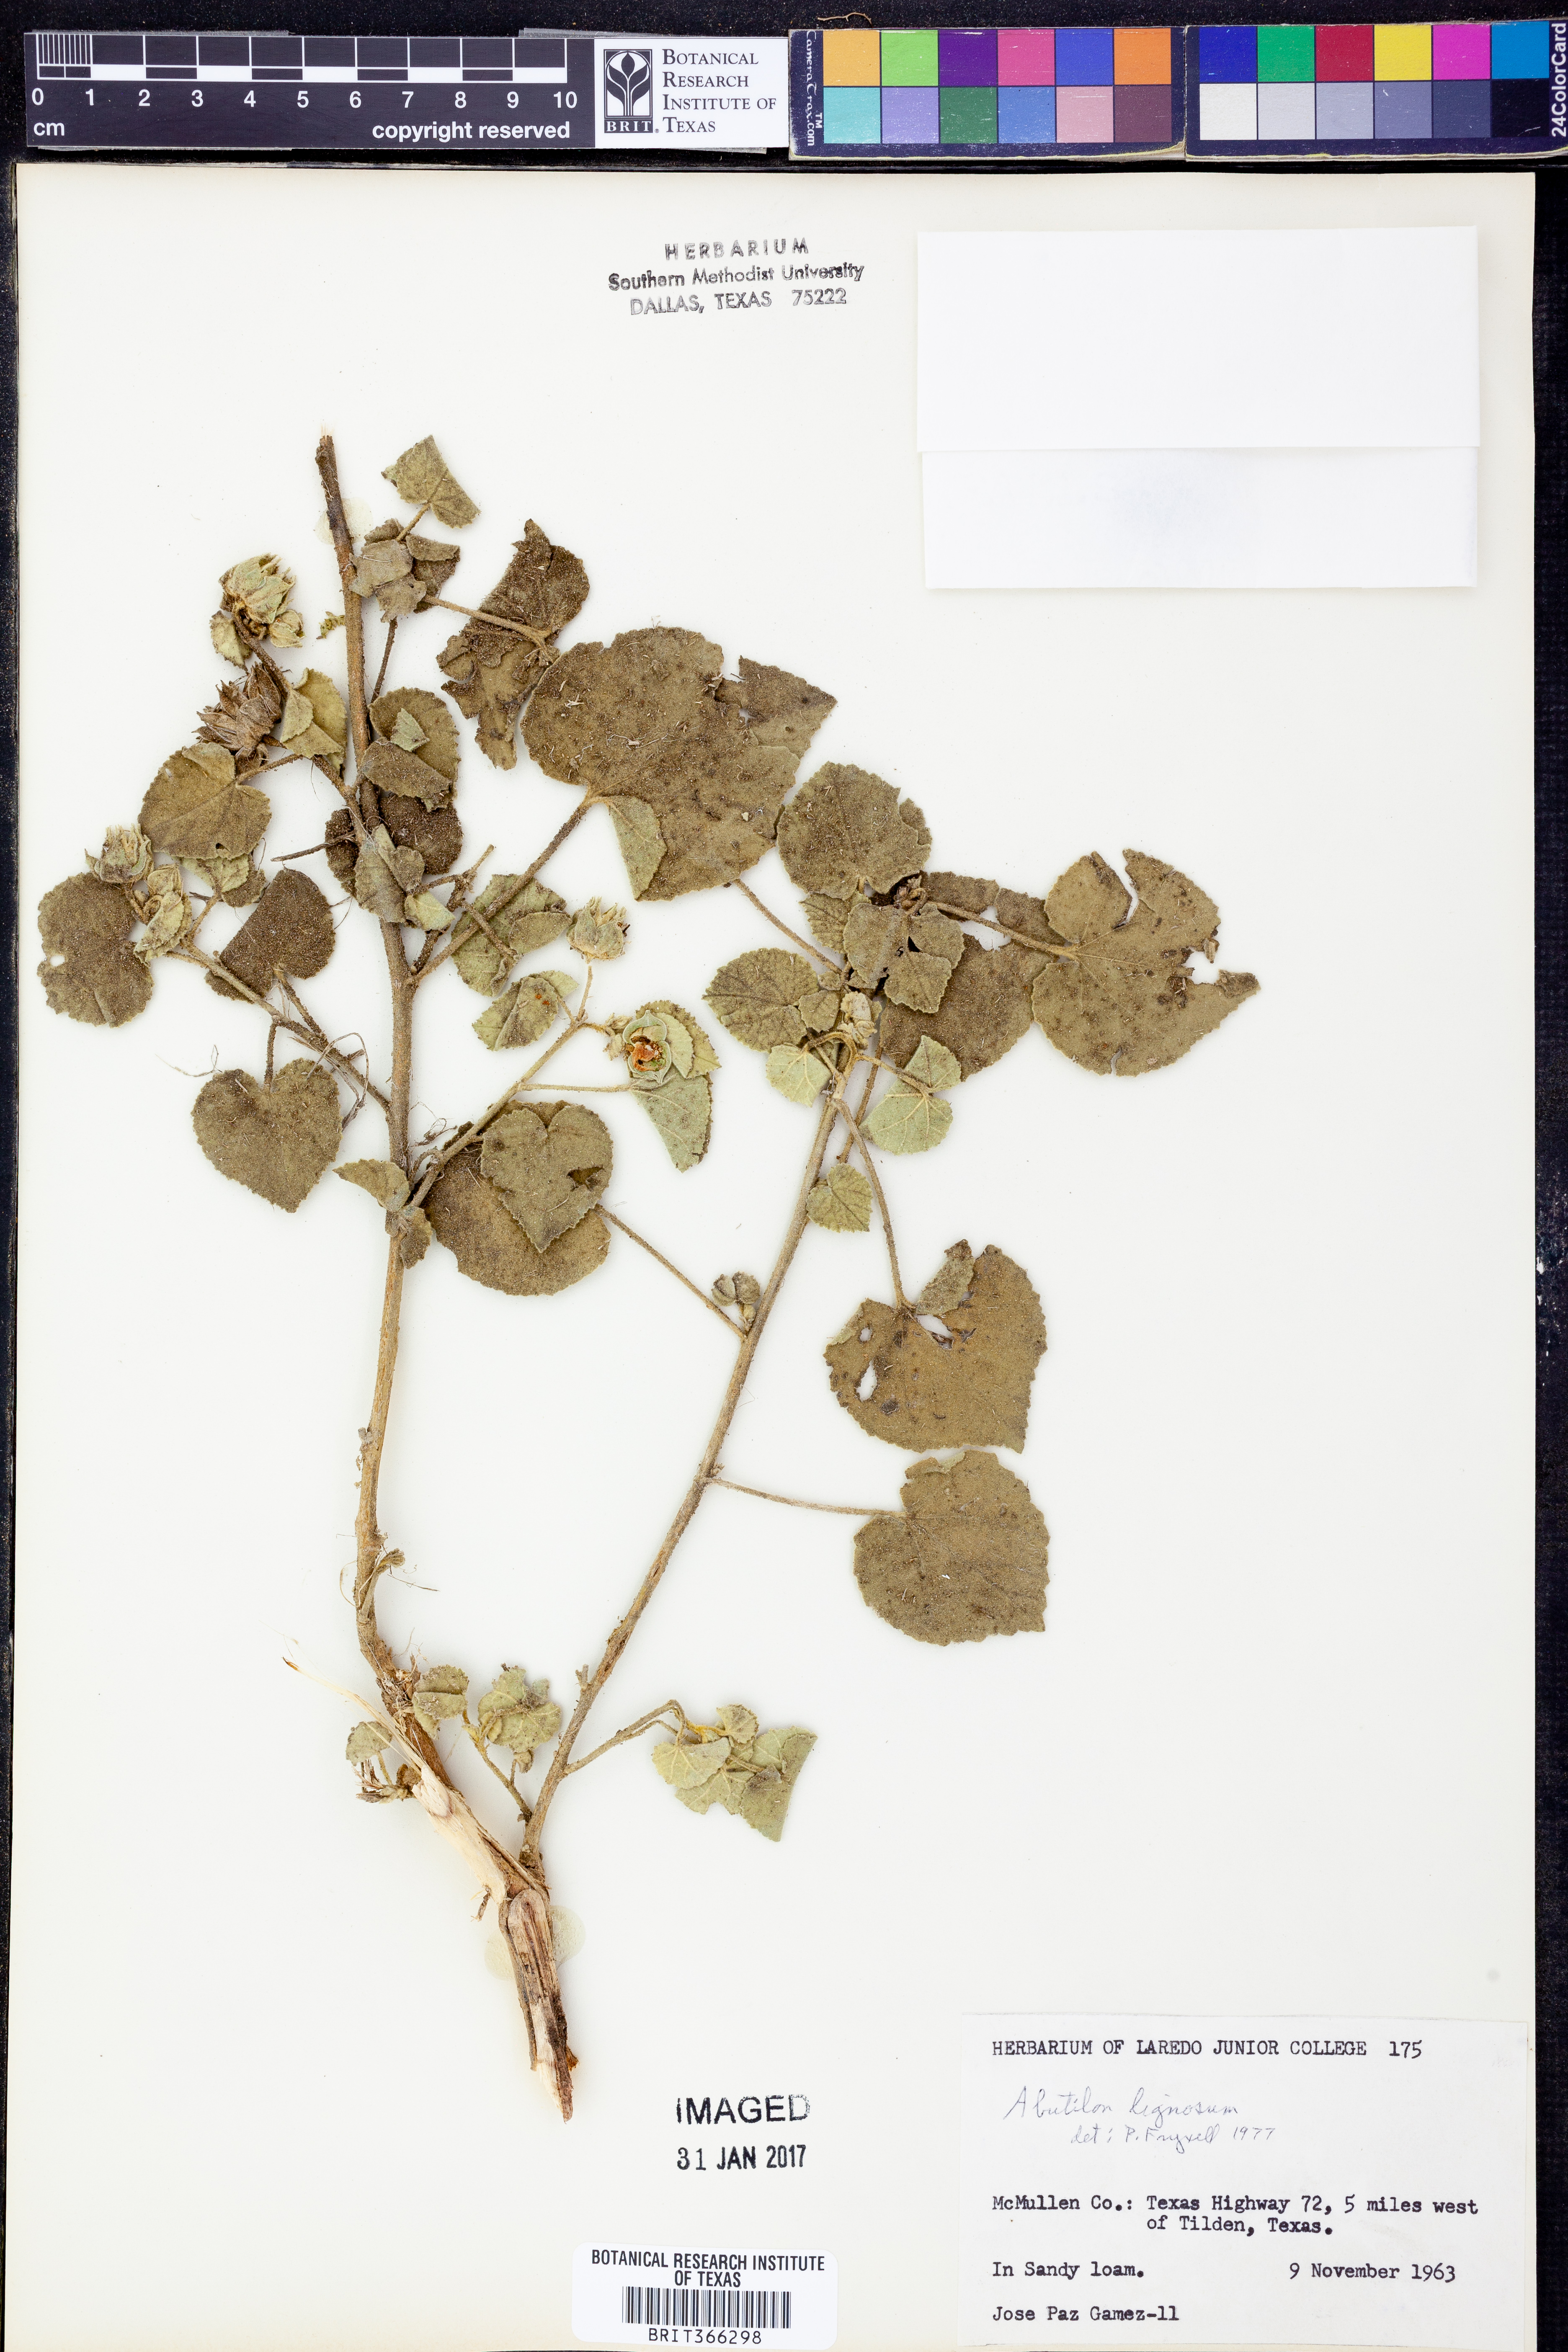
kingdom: Plantae
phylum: Tracheophyta
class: Magnoliopsida
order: Malvales
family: Malvaceae
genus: Abutilon
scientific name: Abutilon abutiloides
